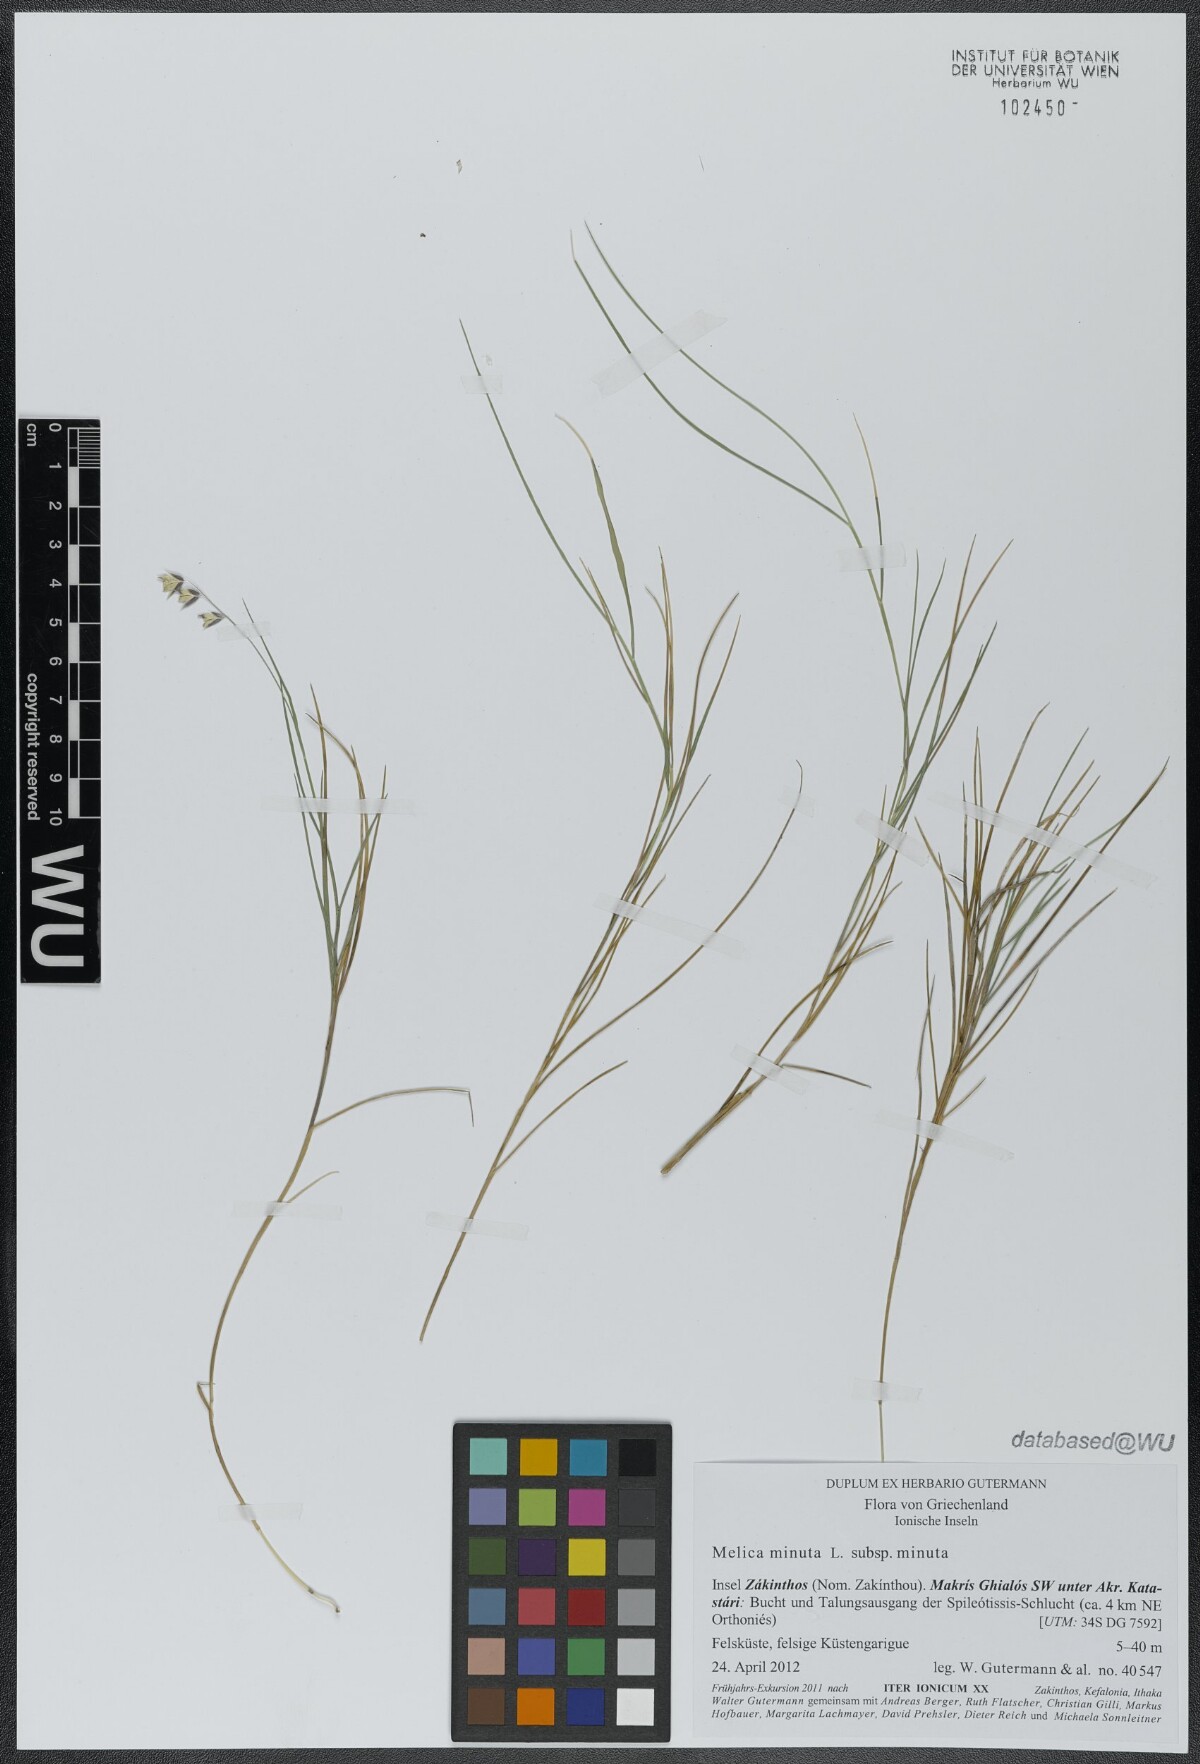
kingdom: Plantae
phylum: Tracheophyta
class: Liliopsida
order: Poales
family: Poaceae
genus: Melica
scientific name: Melica minuta
